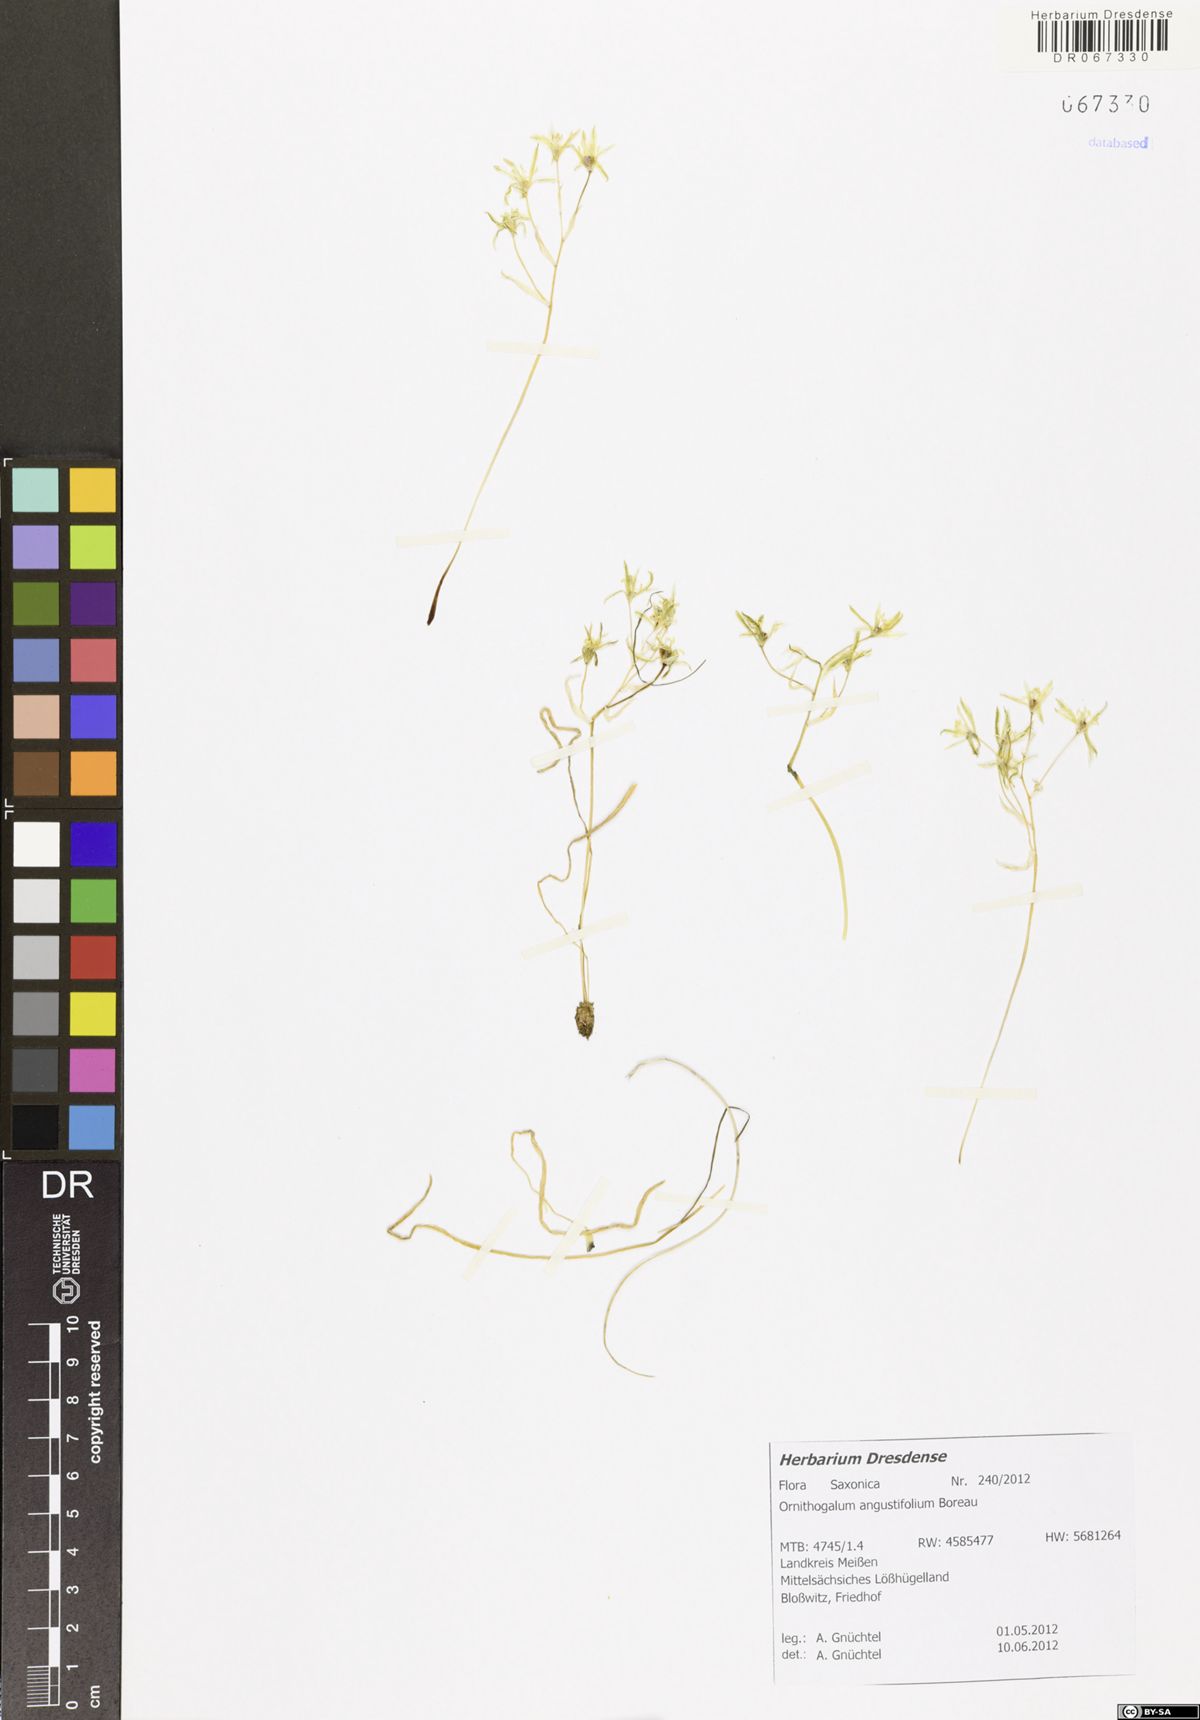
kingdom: Plantae
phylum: Tracheophyta
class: Liliopsida
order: Asparagales
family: Asparagaceae
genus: Ornithogalum
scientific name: Ornithogalum umbellatum
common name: Garden star-of-bethlehem
